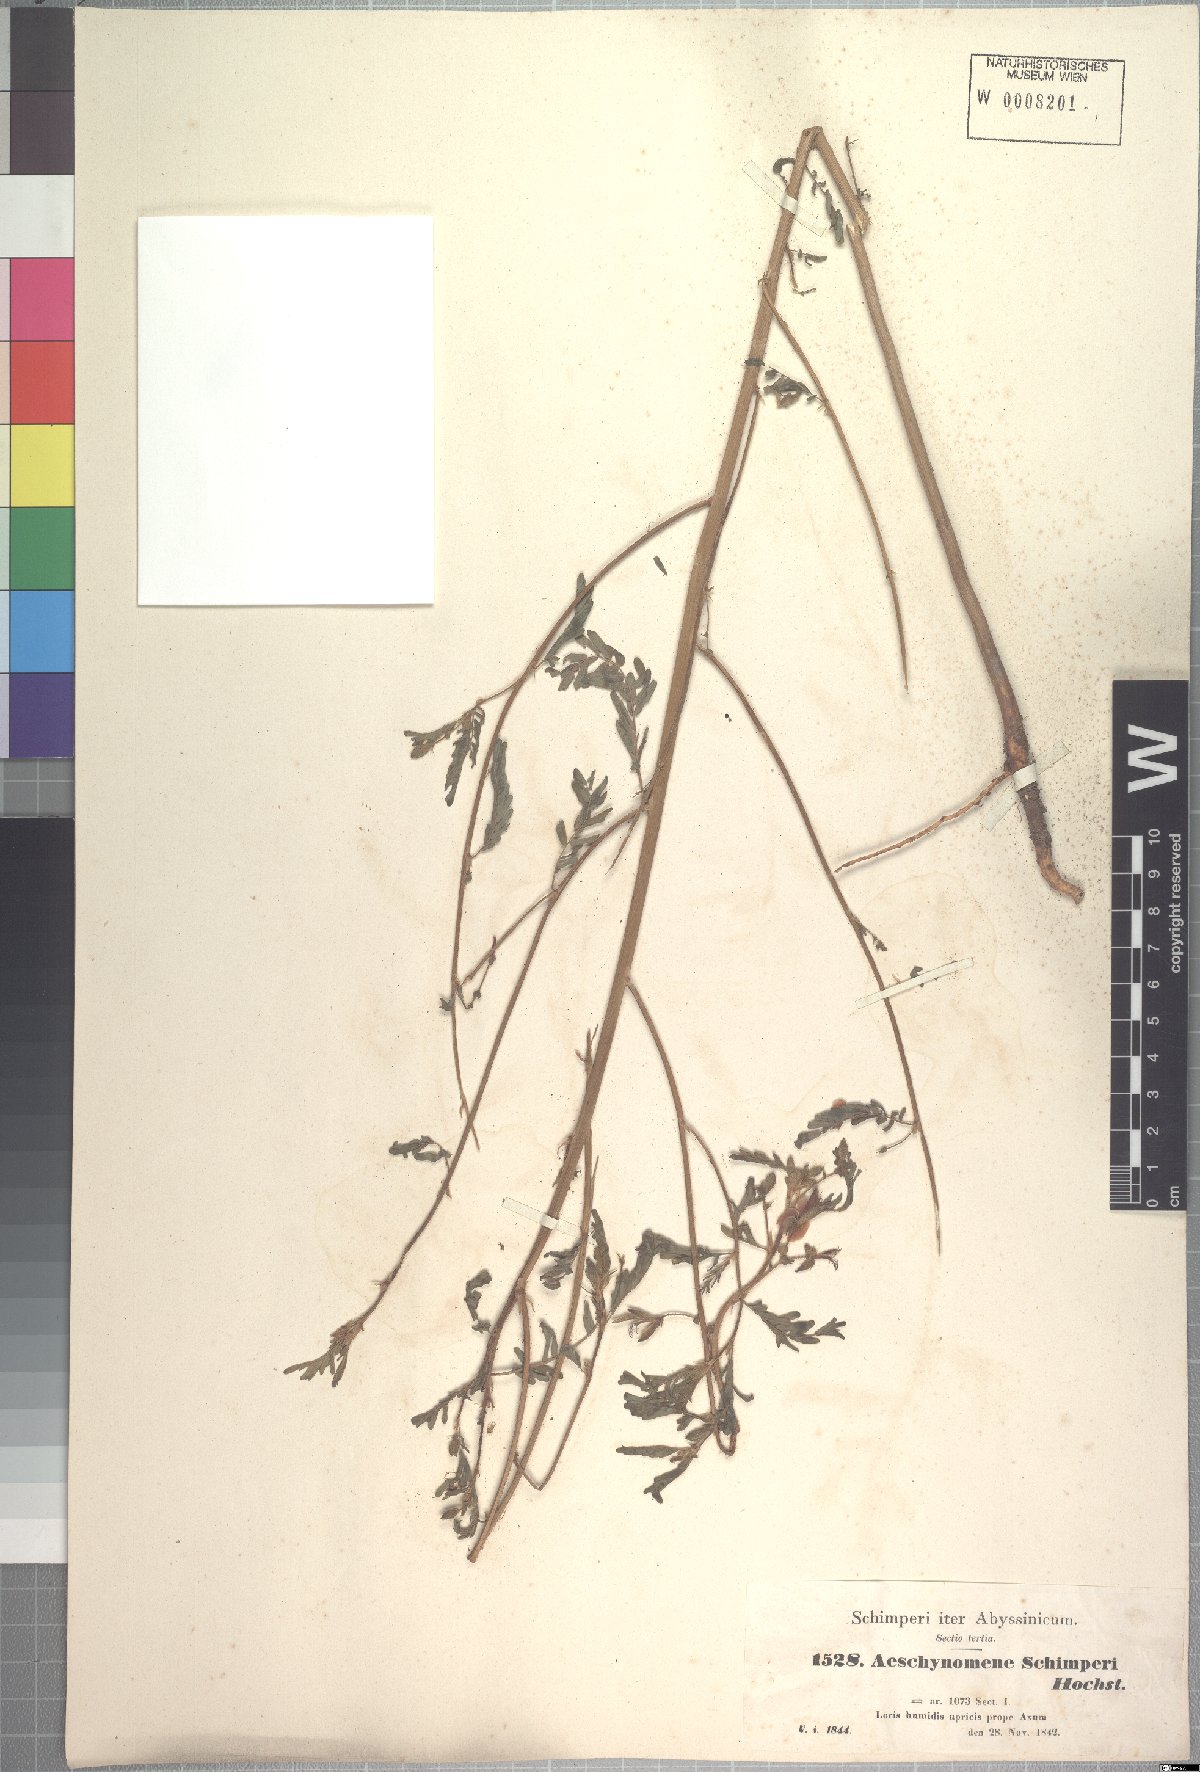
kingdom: Plantae
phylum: Tracheophyta
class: Magnoliopsida
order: Fabales
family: Fabaceae
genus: Aeschynomene
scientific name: Aeschynomene schimperi
